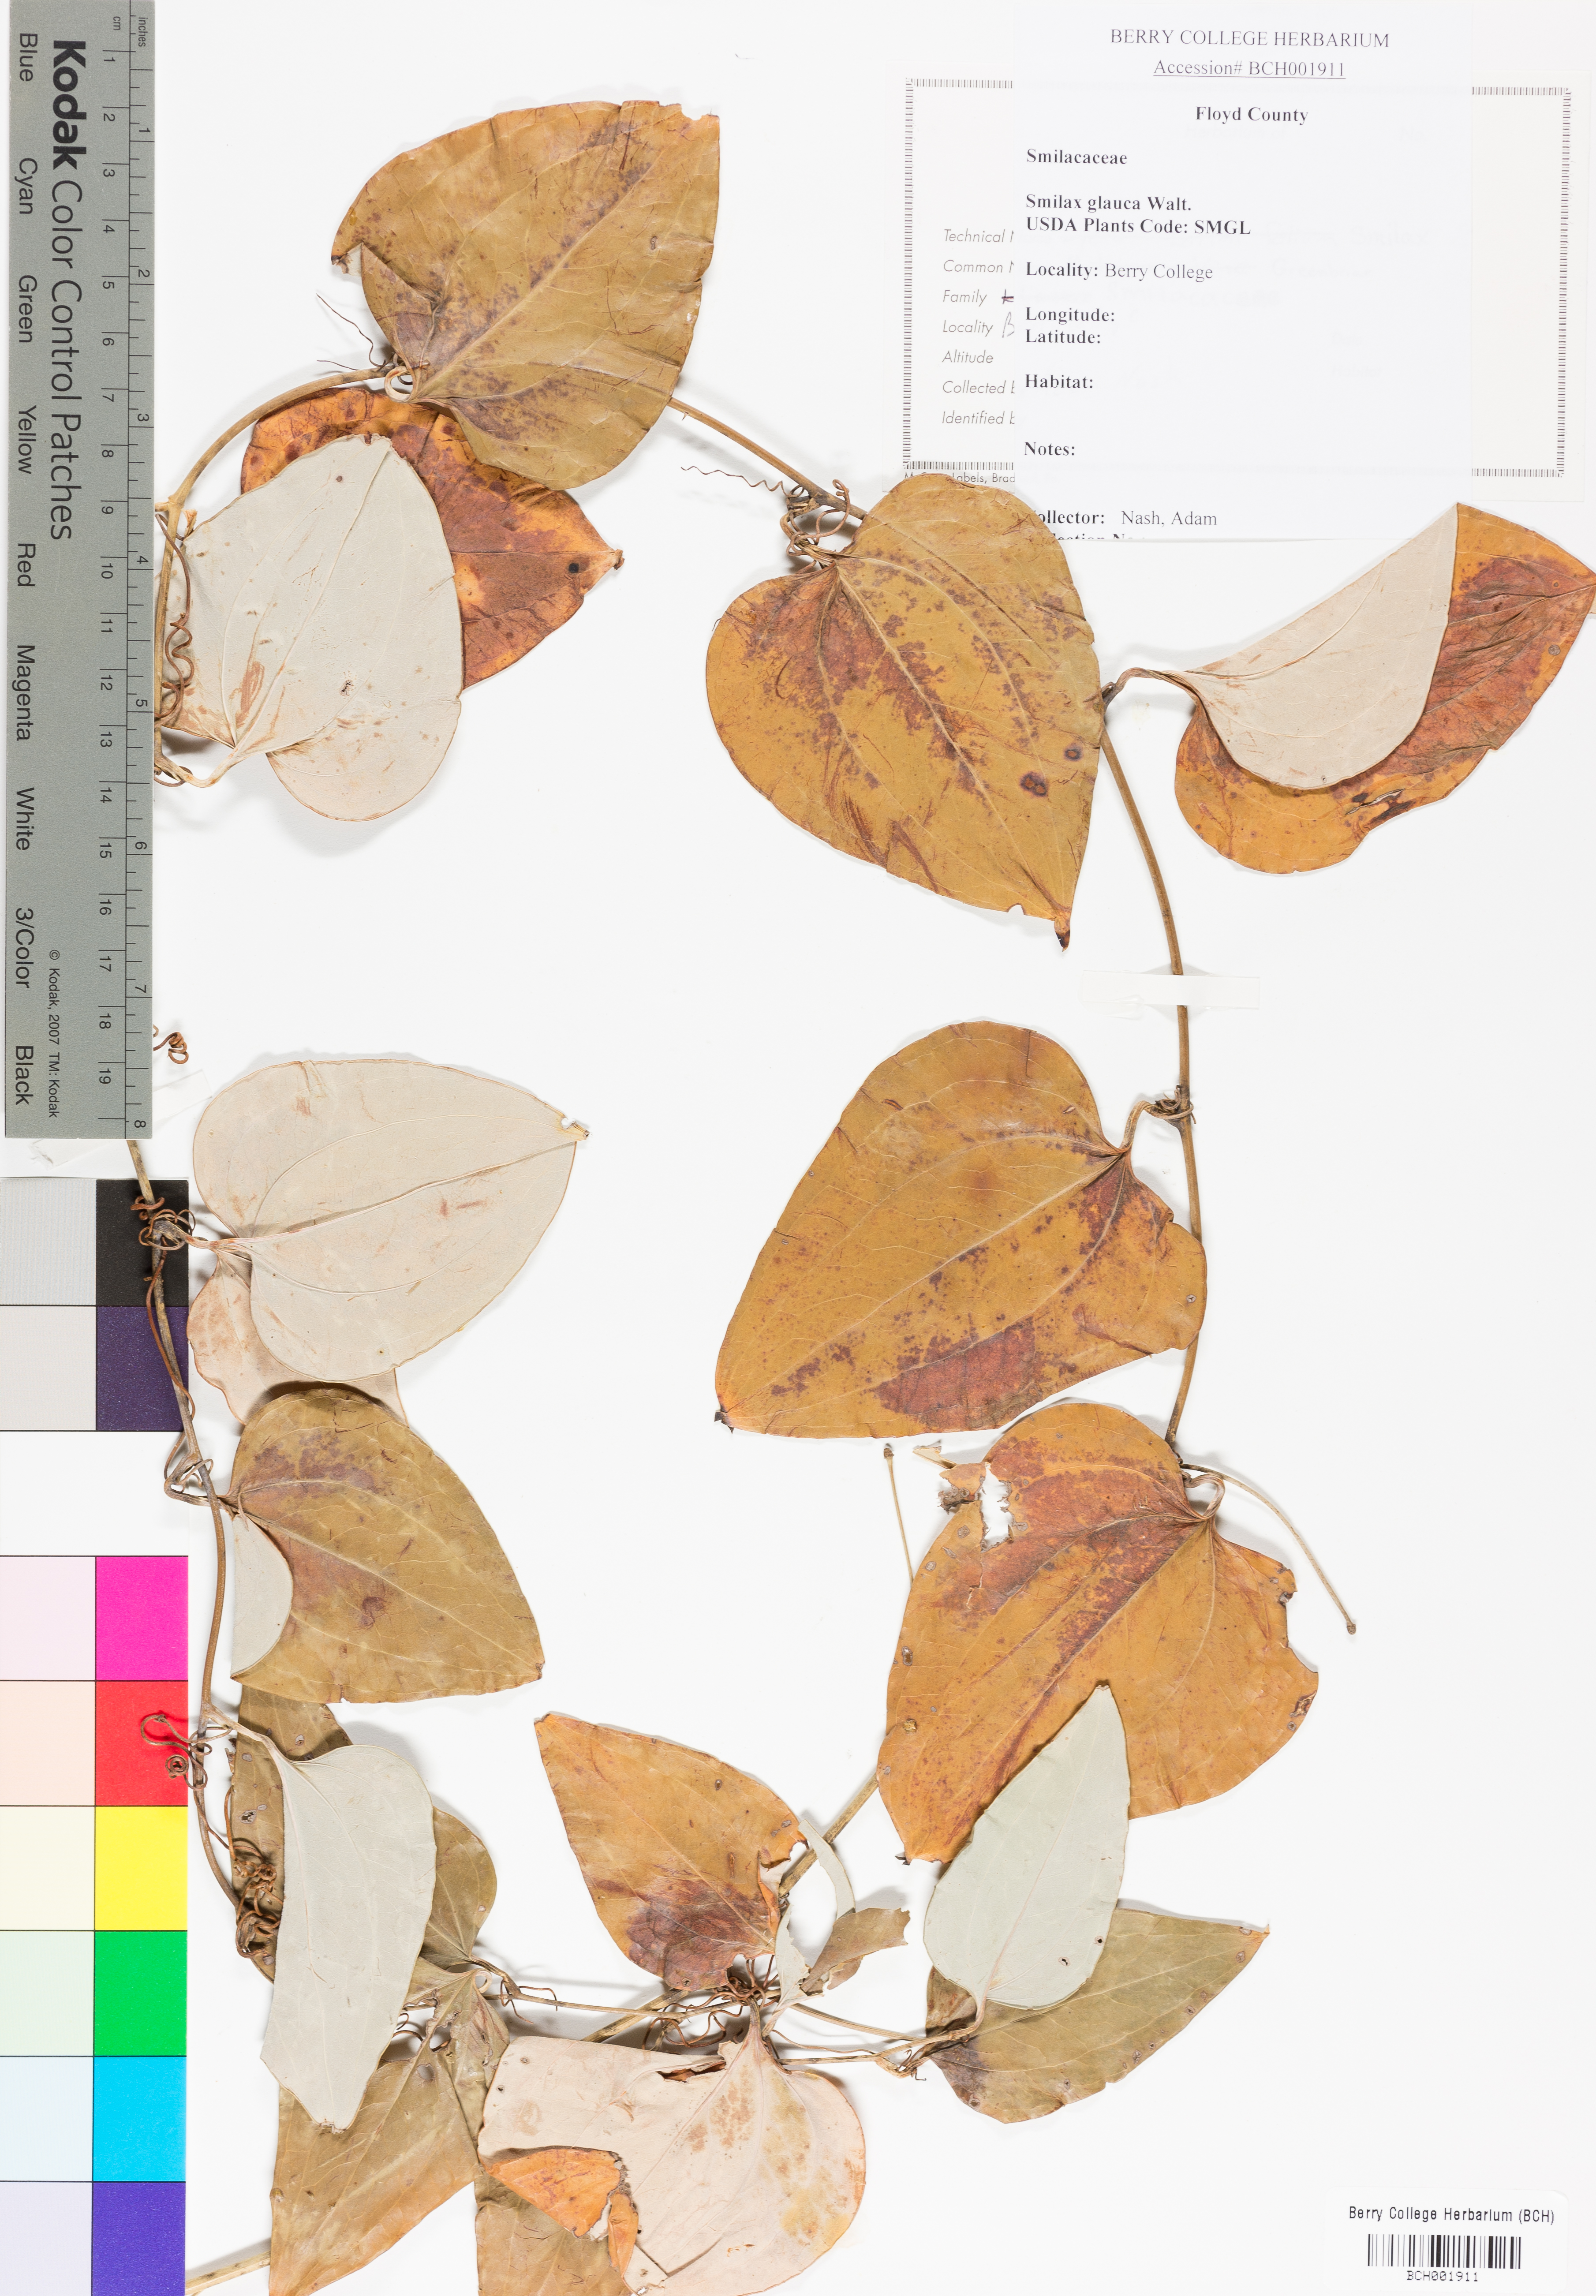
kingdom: Plantae
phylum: Tracheophyta
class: Liliopsida
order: Liliales
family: Smilacaceae
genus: Smilax
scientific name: Smilax glauca
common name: Cat greenbrier
